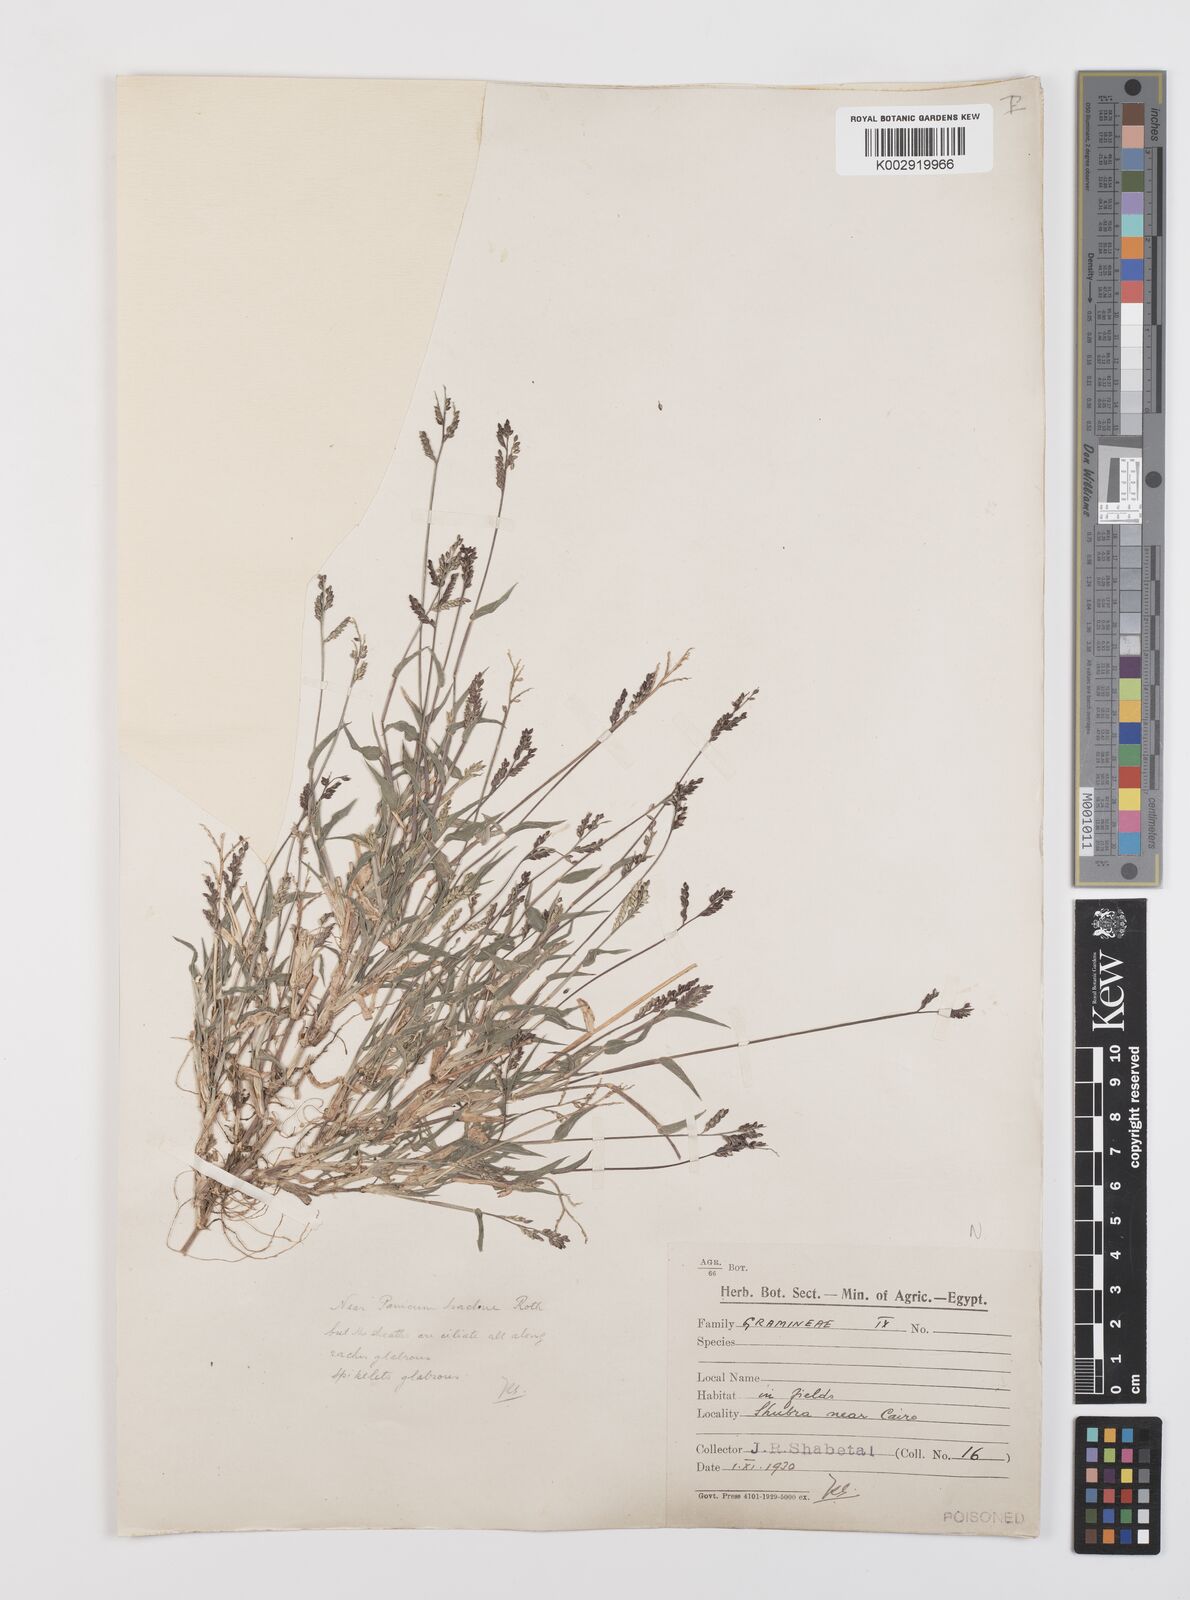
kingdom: Plantae
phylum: Tracheophyta
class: Liliopsida
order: Poales
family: Poaceae
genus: Urochloa
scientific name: Urochloa reptans
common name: Sprawling signalgrass
